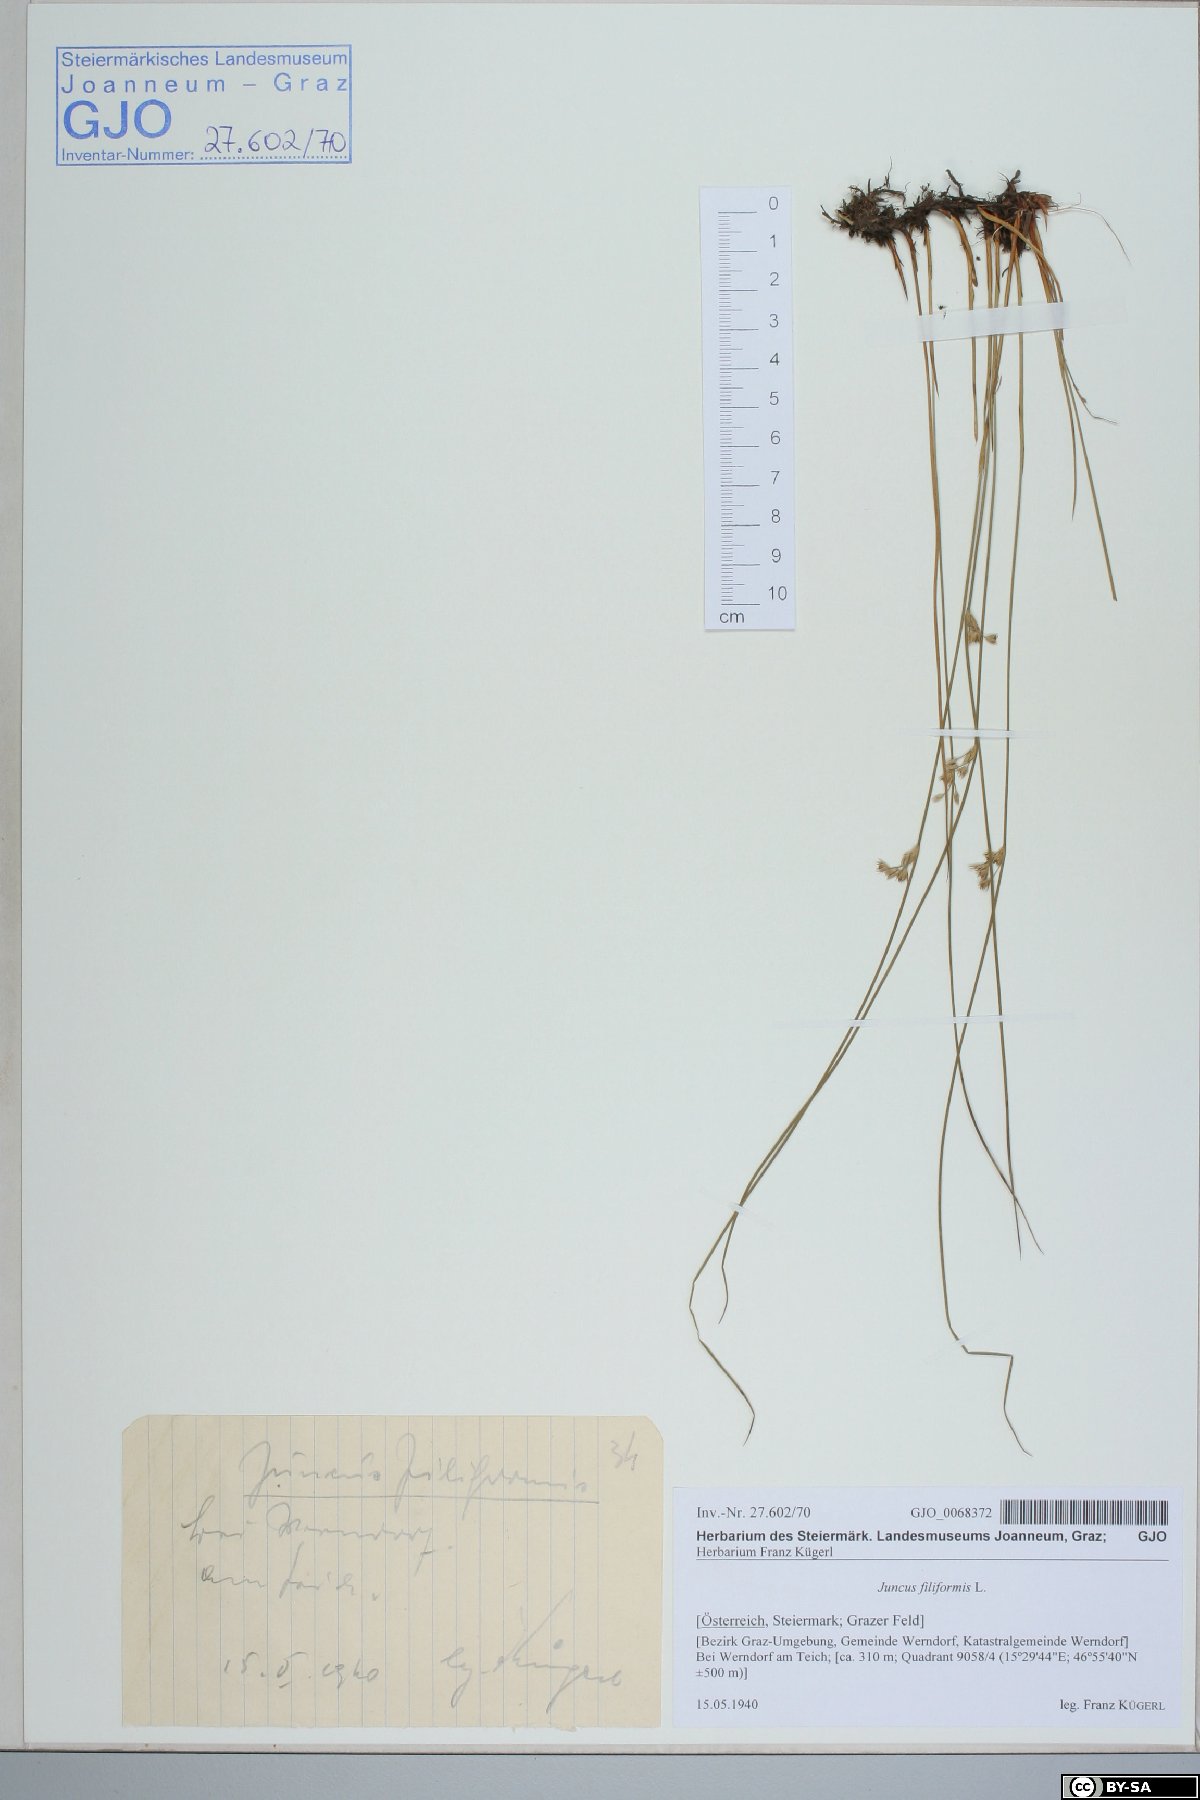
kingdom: Plantae
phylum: Tracheophyta
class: Liliopsida
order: Poales
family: Juncaceae
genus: Juncus
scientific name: Juncus filiformis
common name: Thread rush
